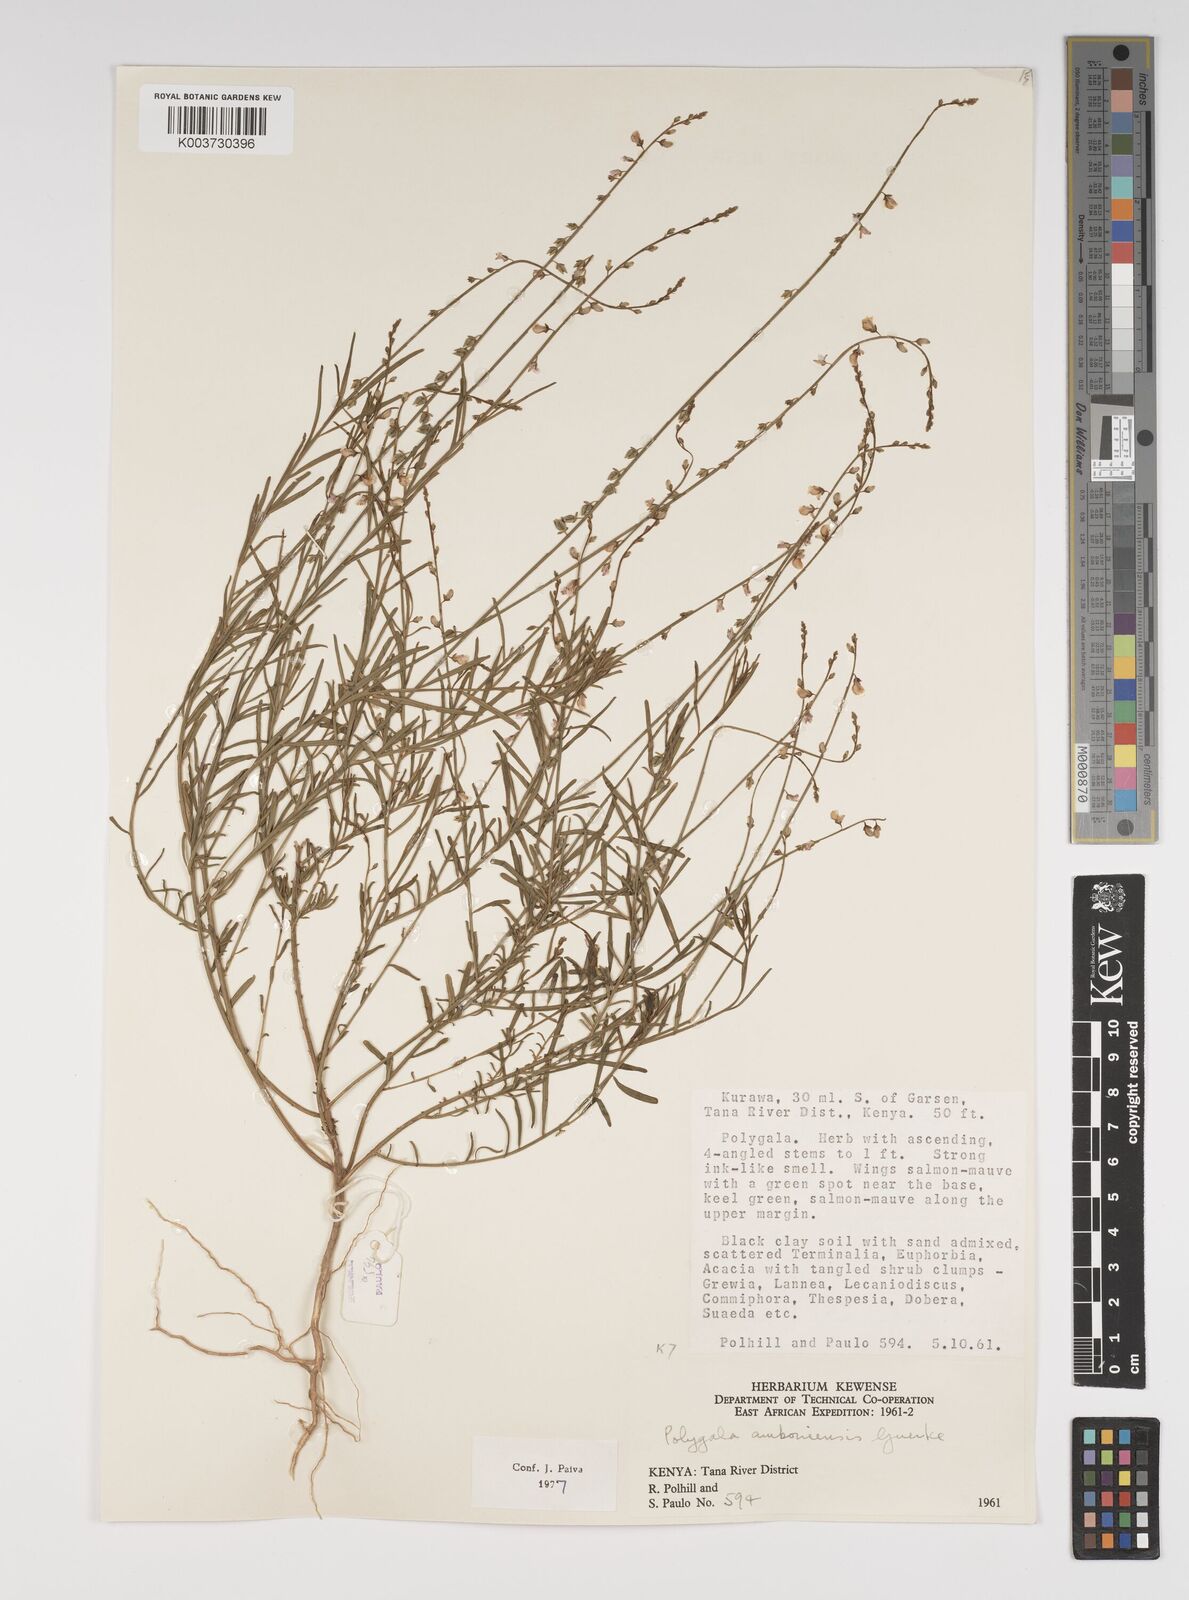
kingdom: Plantae
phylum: Tracheophyta
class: Magnoliopsida
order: Fabales
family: Polygalaceae
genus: Polygala
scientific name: Polygala amboniensis
